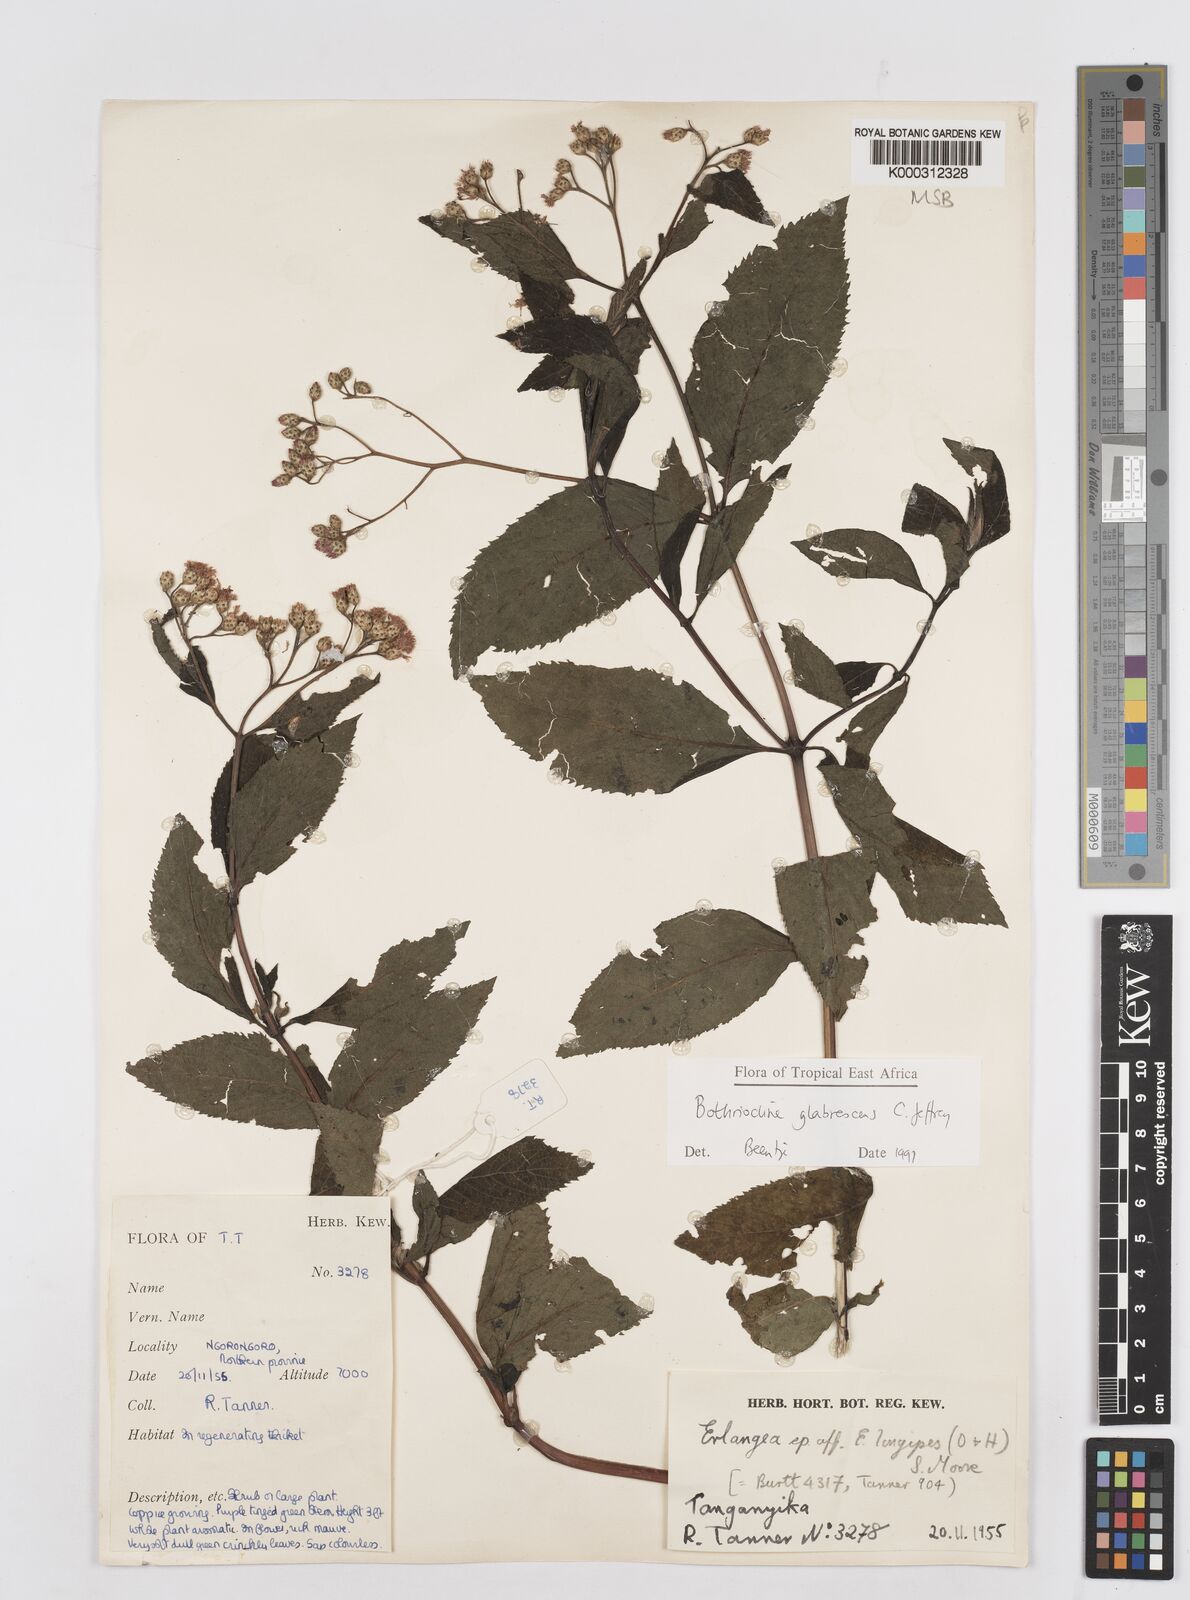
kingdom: Plantae
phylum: Tracheophyta
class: Magnoliopsida
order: Asterales
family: Asteraceae
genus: Bothriocline
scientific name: Bothriocline glabrescens
